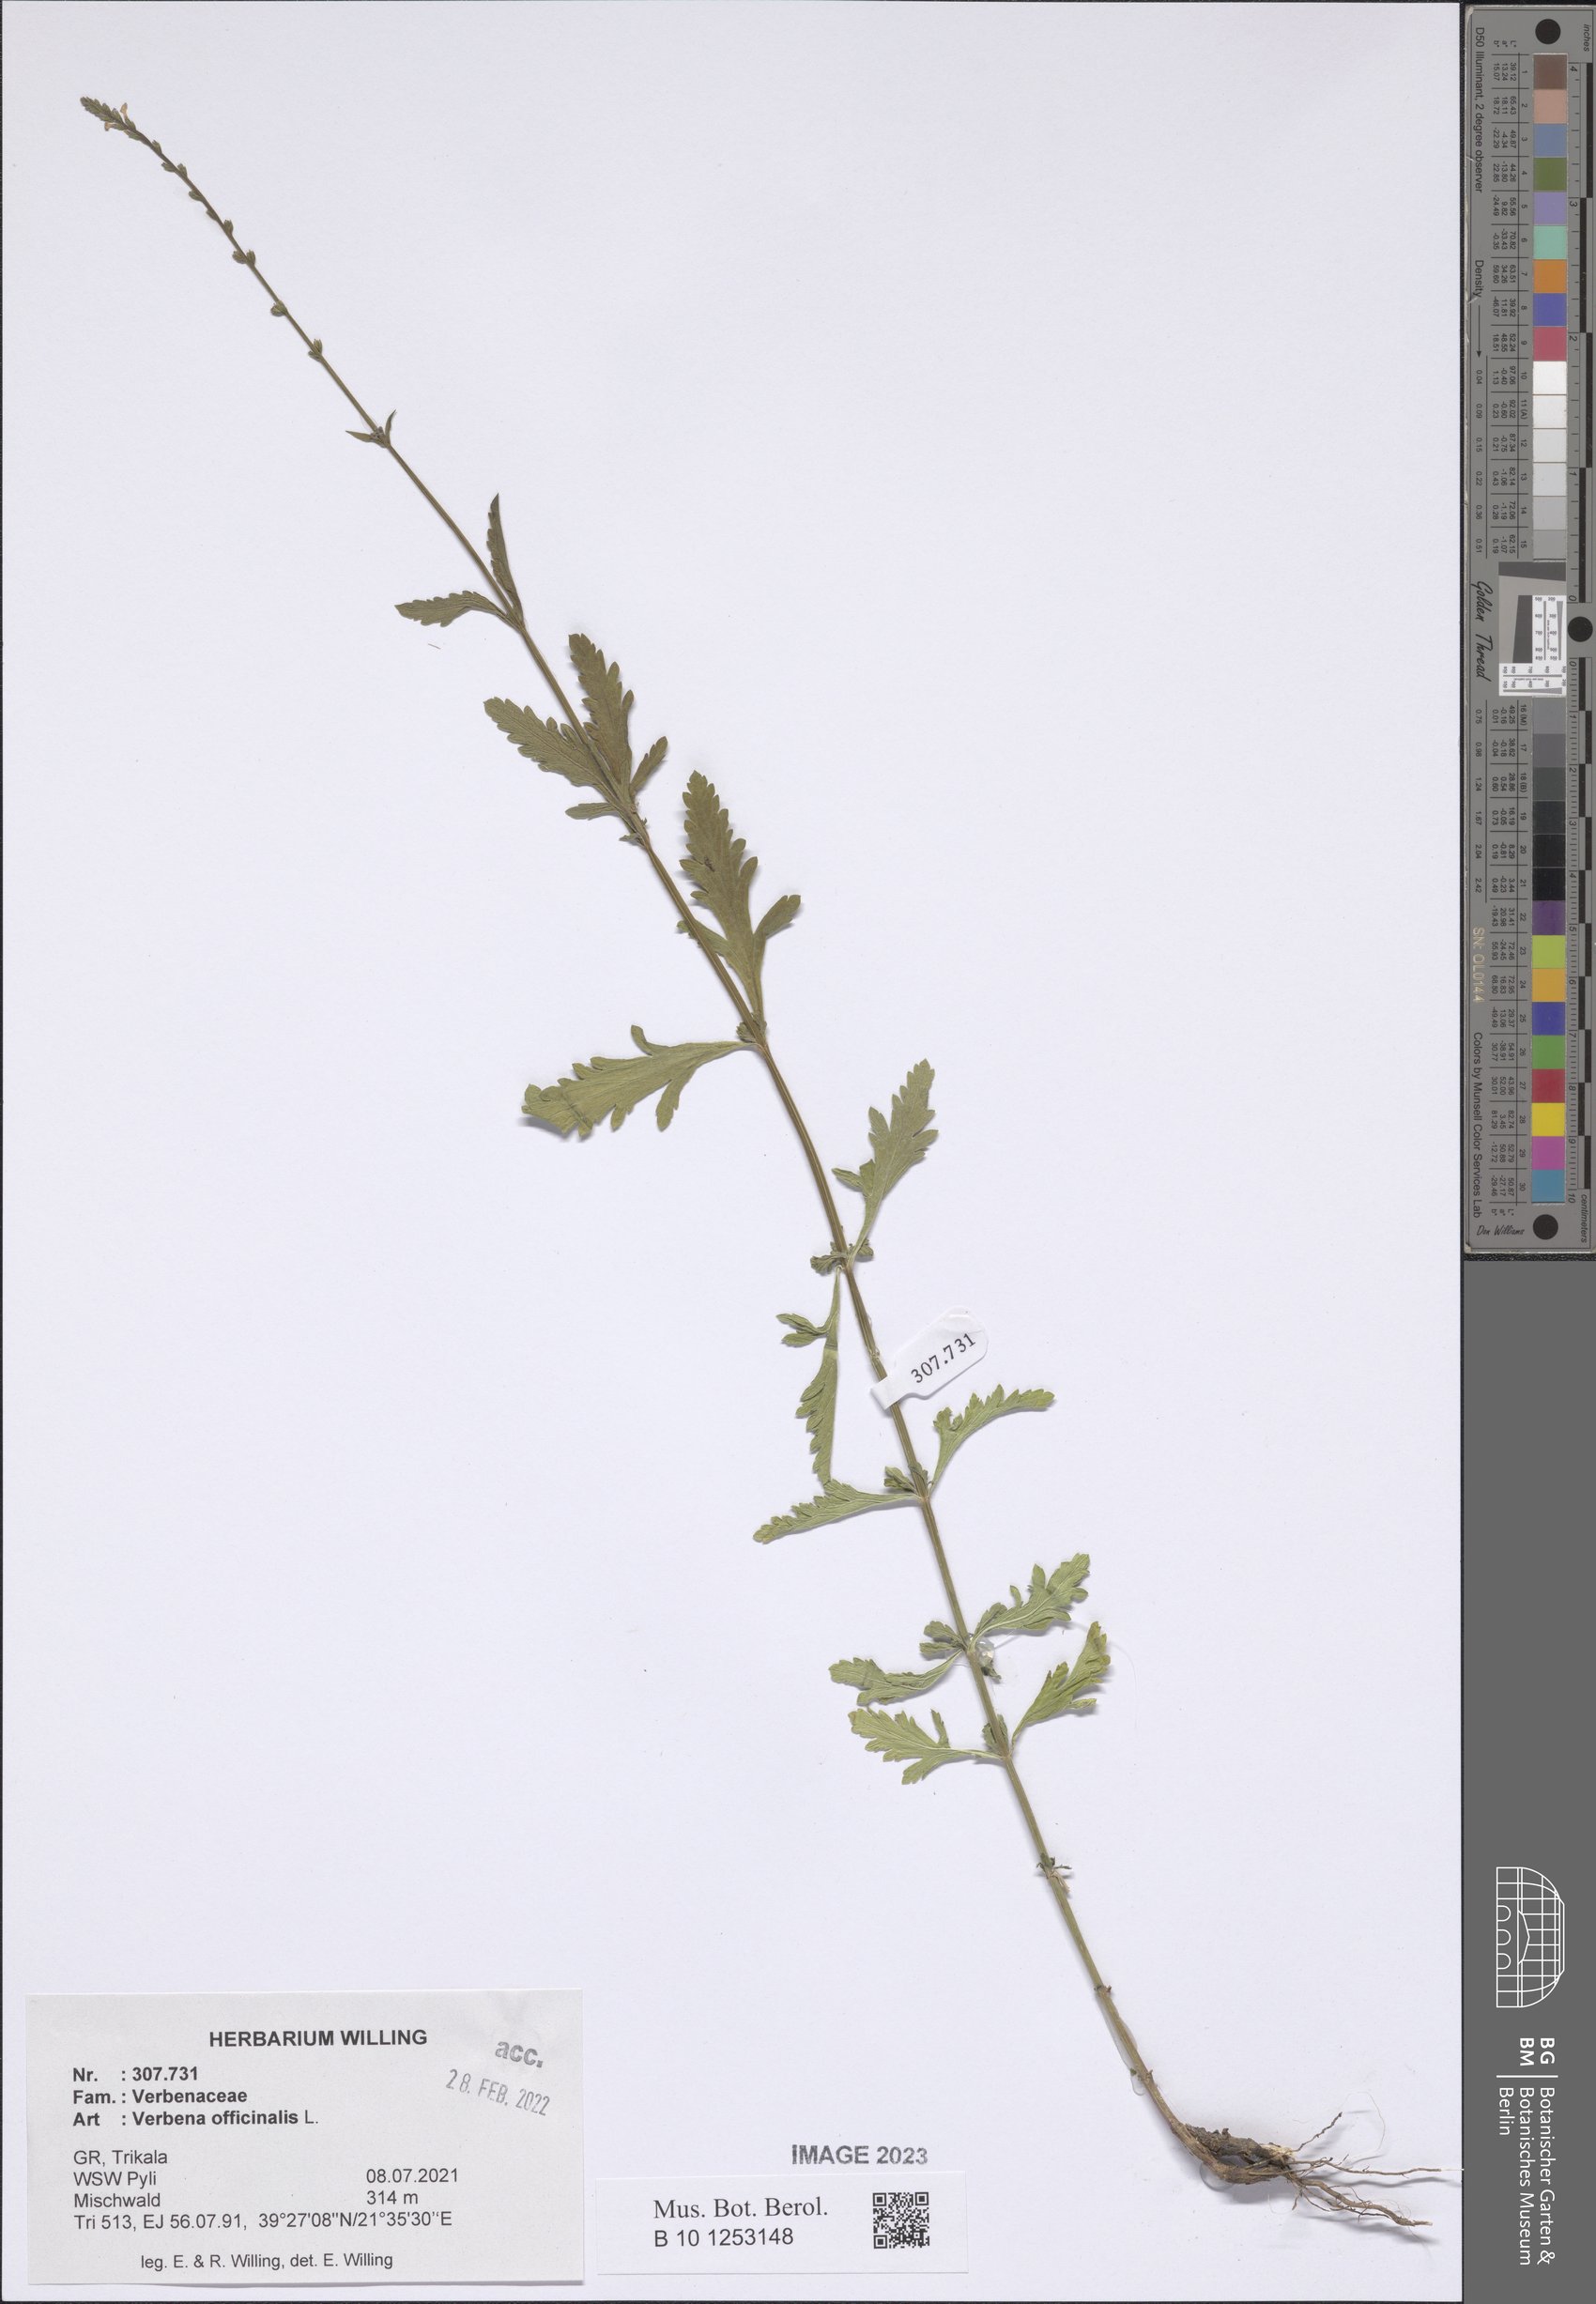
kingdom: Plantae
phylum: Tracheophyta
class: Magnoliopsida
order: Lamiales
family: Verbenaceae
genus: Verbena
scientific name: Verbena officinalis
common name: Vervain
